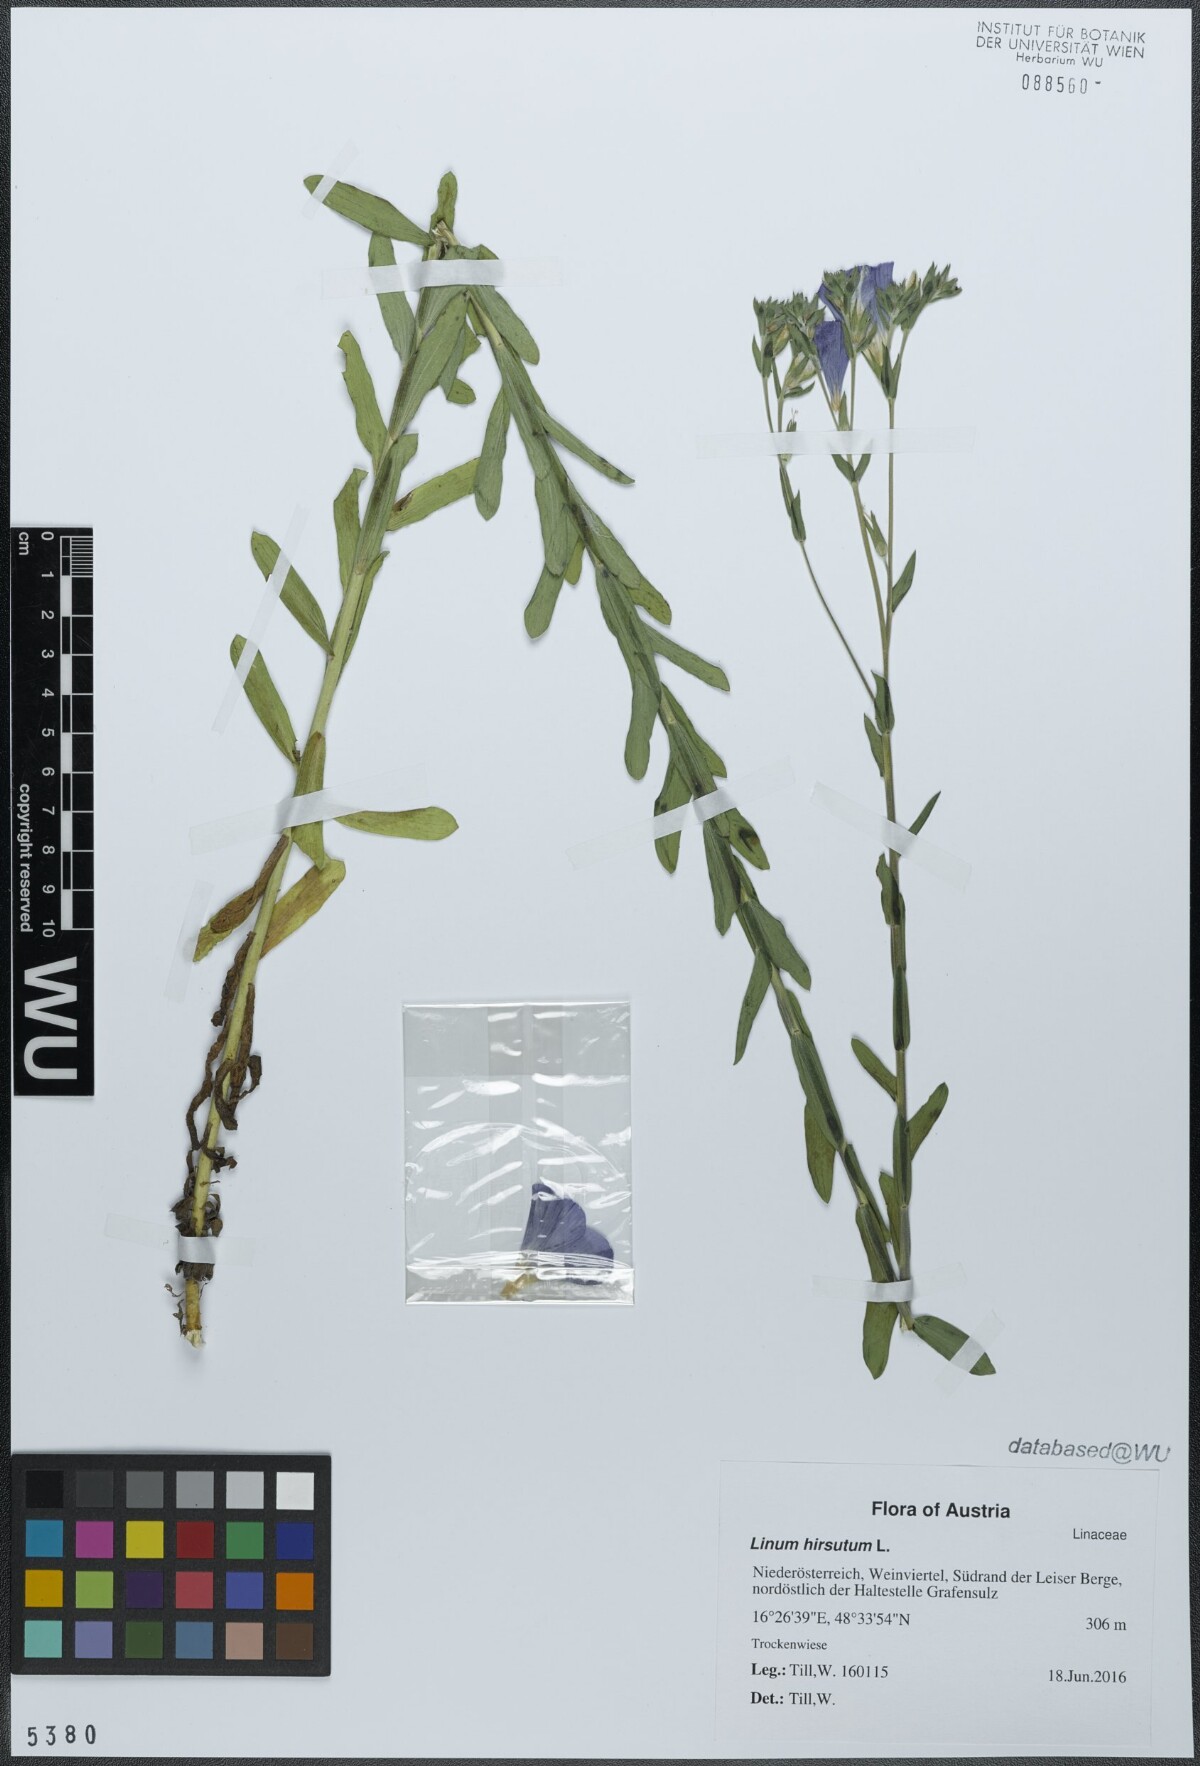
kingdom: Plantae
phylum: Tracheophyta
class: Magnoliopsida
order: Malpighiales
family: Linaceae
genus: Linum
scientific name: Linum hirsutum
